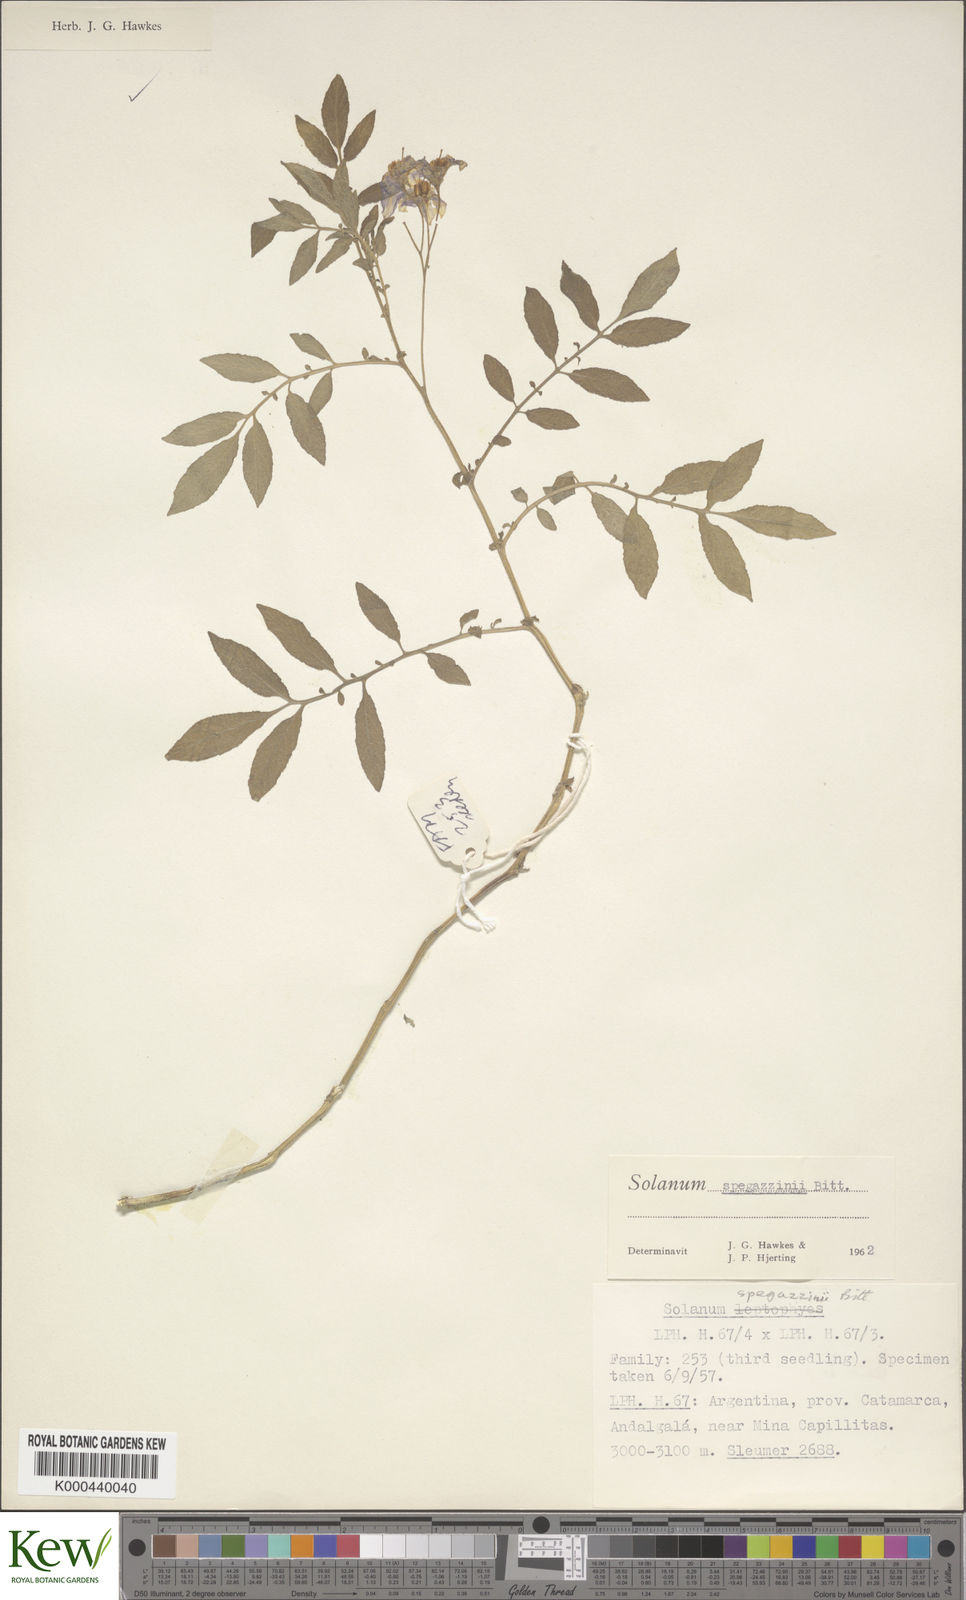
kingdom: Plantae
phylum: Tracheophyta
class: Magnoliopsida
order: Solanales
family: Solanaceae
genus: Solanum
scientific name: Solanum brevicaule
